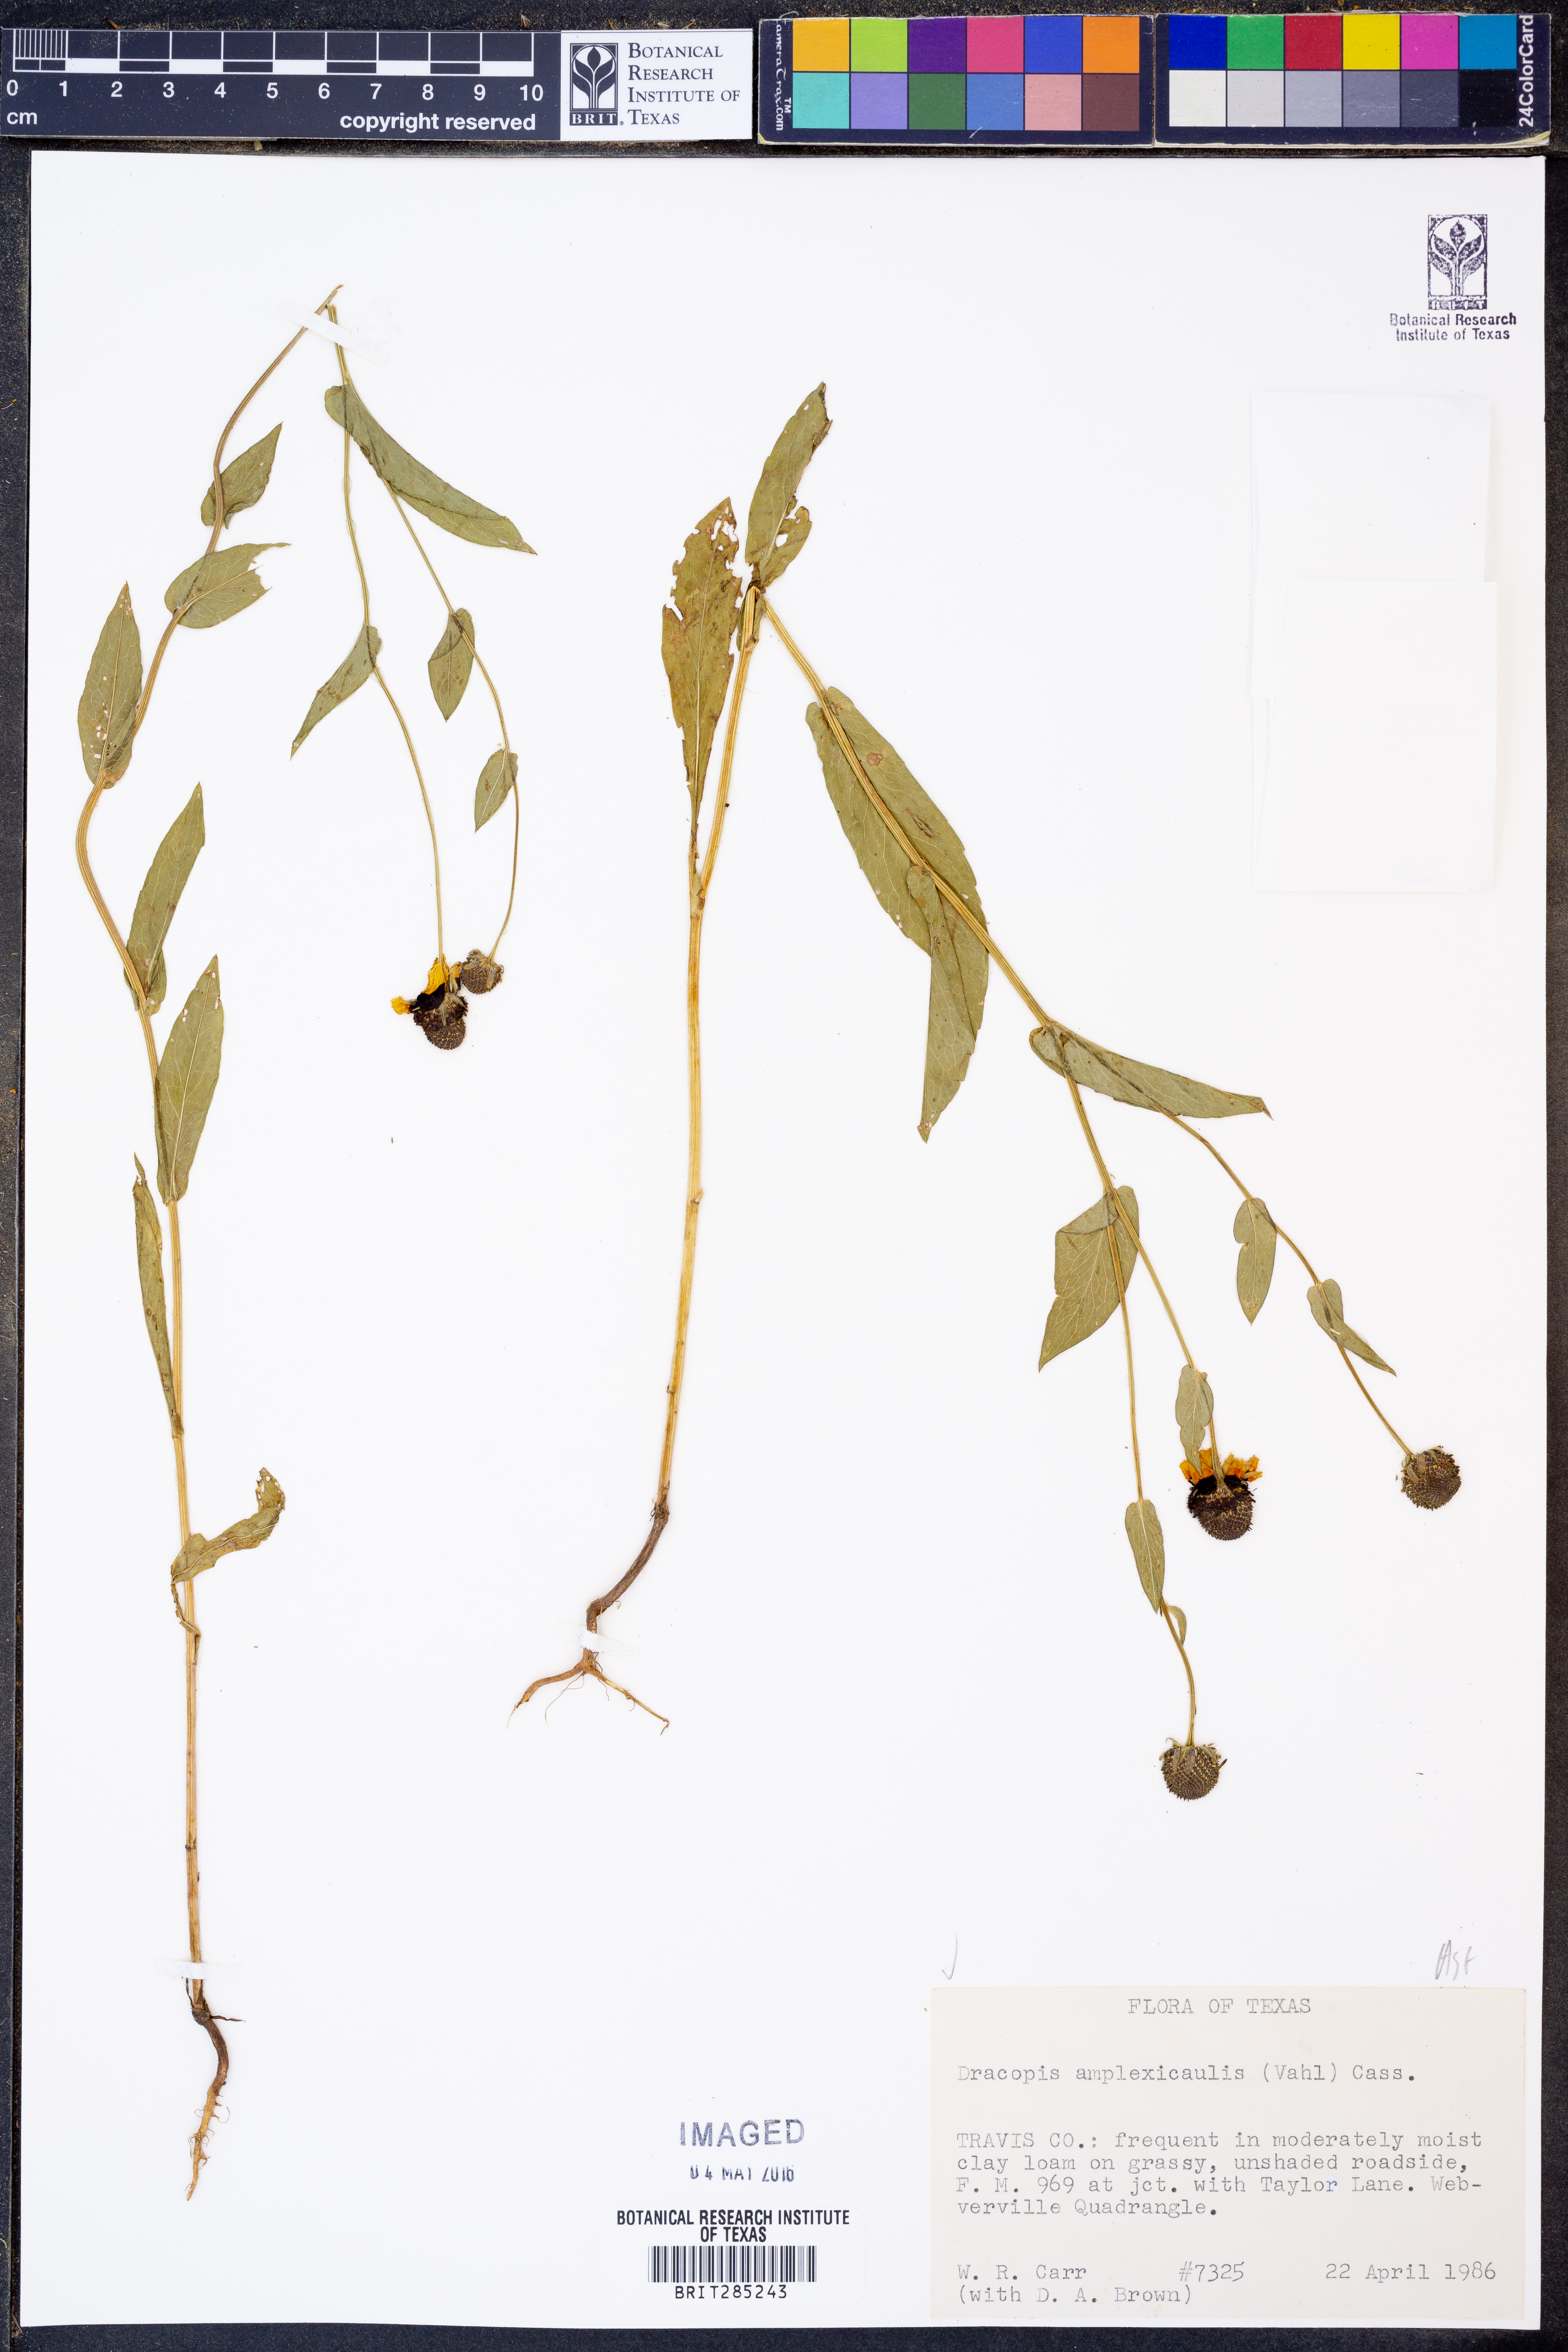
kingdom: Plantae
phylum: Tracheophyta
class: Magnoliopsida
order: Asterales
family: Asteraceae
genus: Rudbeckia
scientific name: Rudbeckia amplexicaulis
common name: Clasping-leaf coneflower
